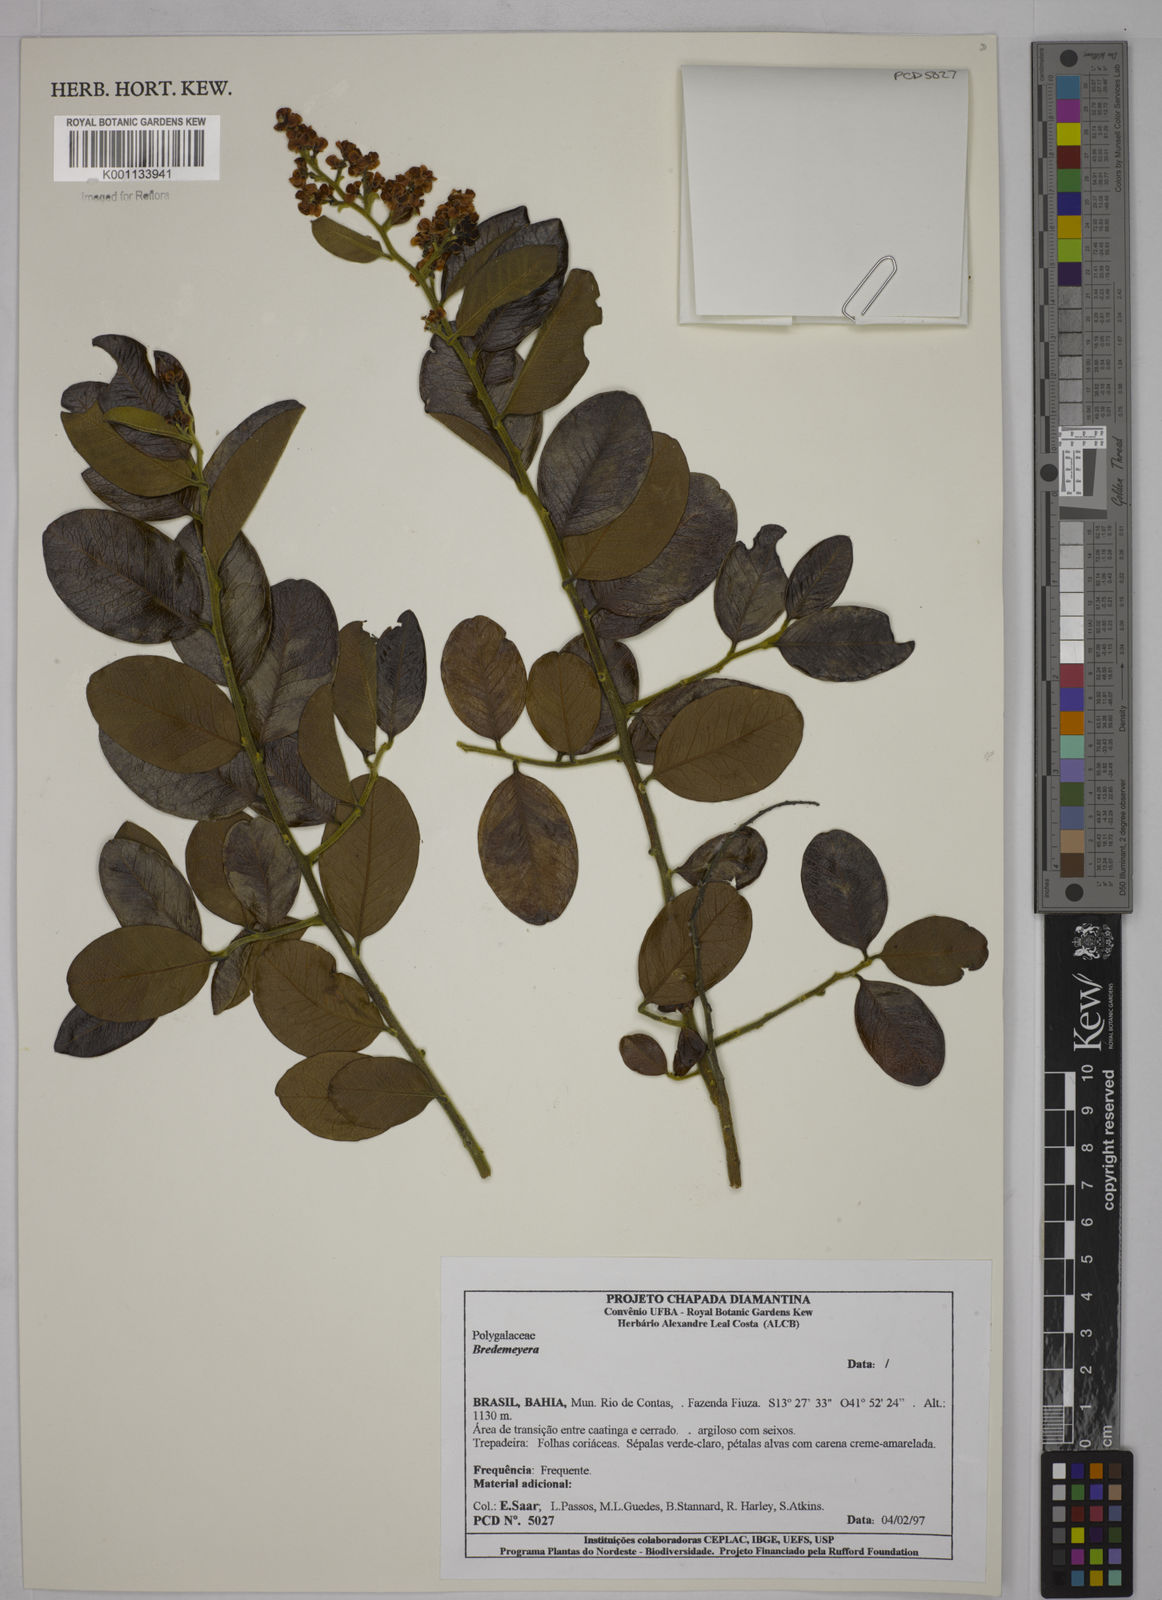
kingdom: Plantae
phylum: Tracheophyta
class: Magnoliopsida
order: Fabales
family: Polygalaceae
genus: Bredemeyera
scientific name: Bredemeyera
